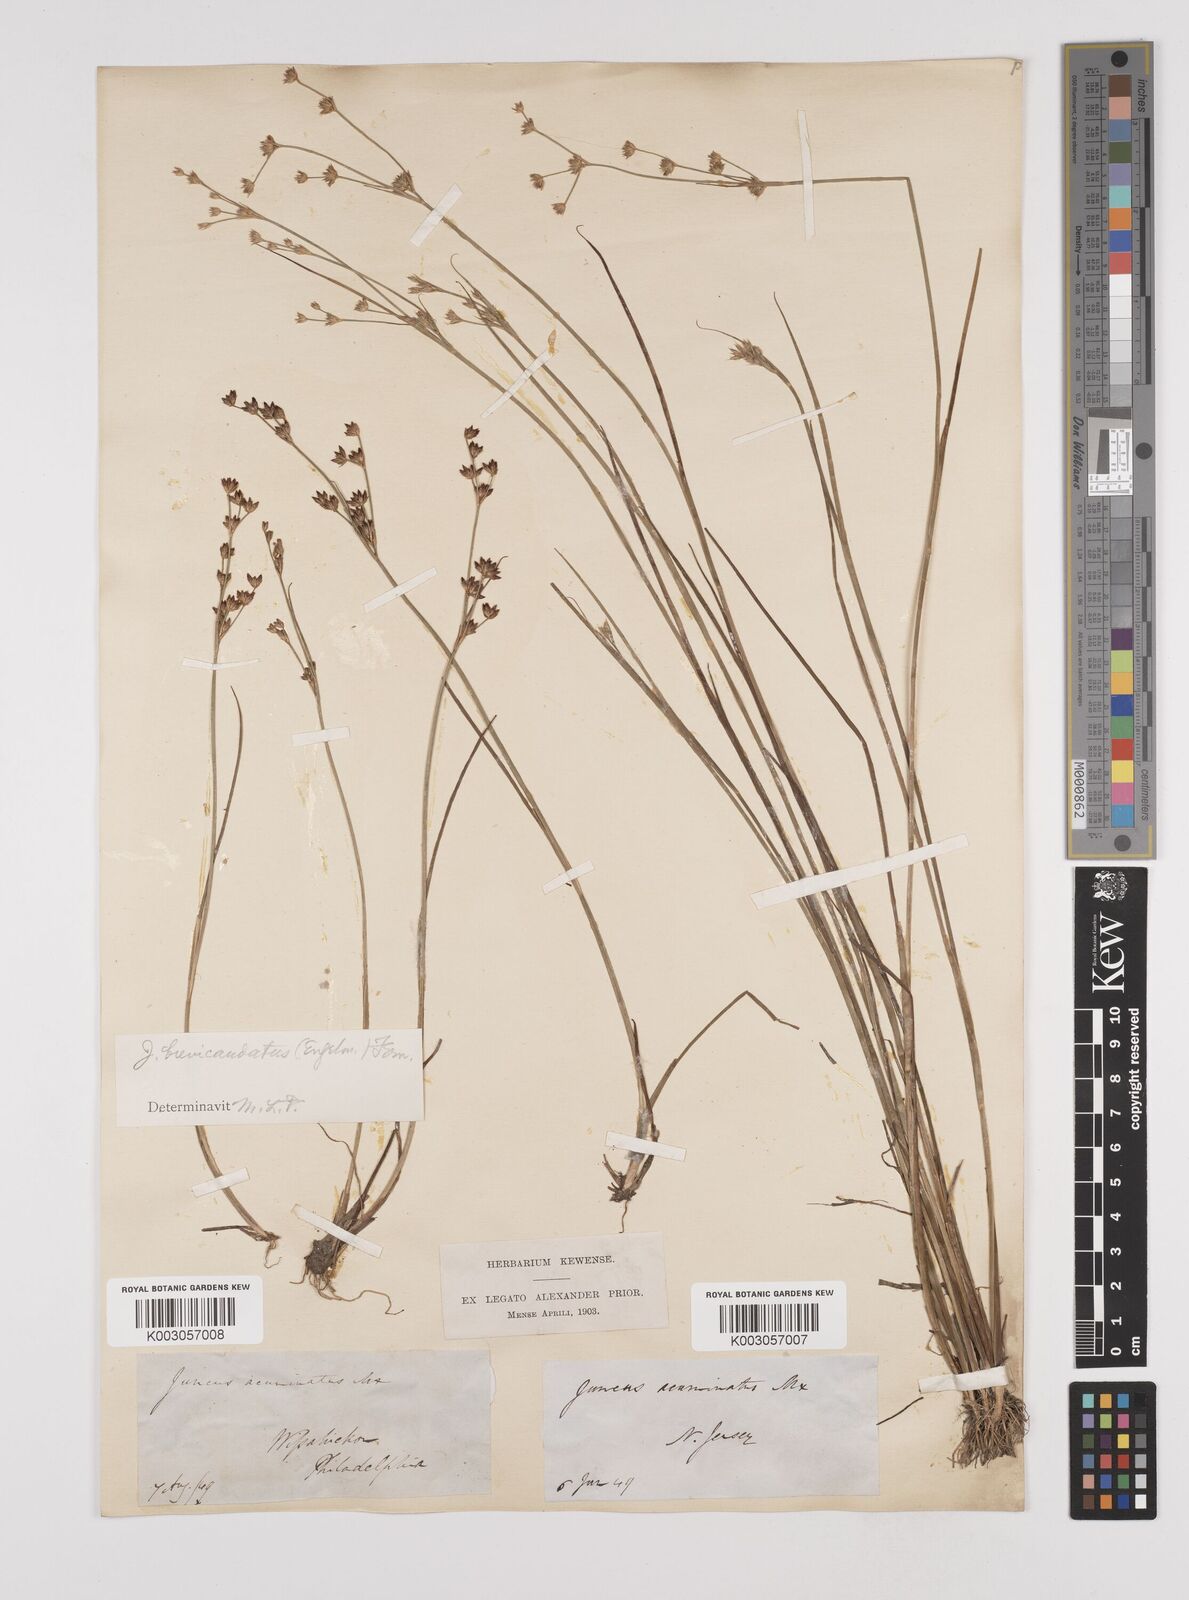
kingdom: Plantae
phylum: Tracheophyta
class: Liliopsida
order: Poales
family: Juncaceae
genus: Juncus
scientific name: Juncus brevicaudatus
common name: Narrow-panicle rush
